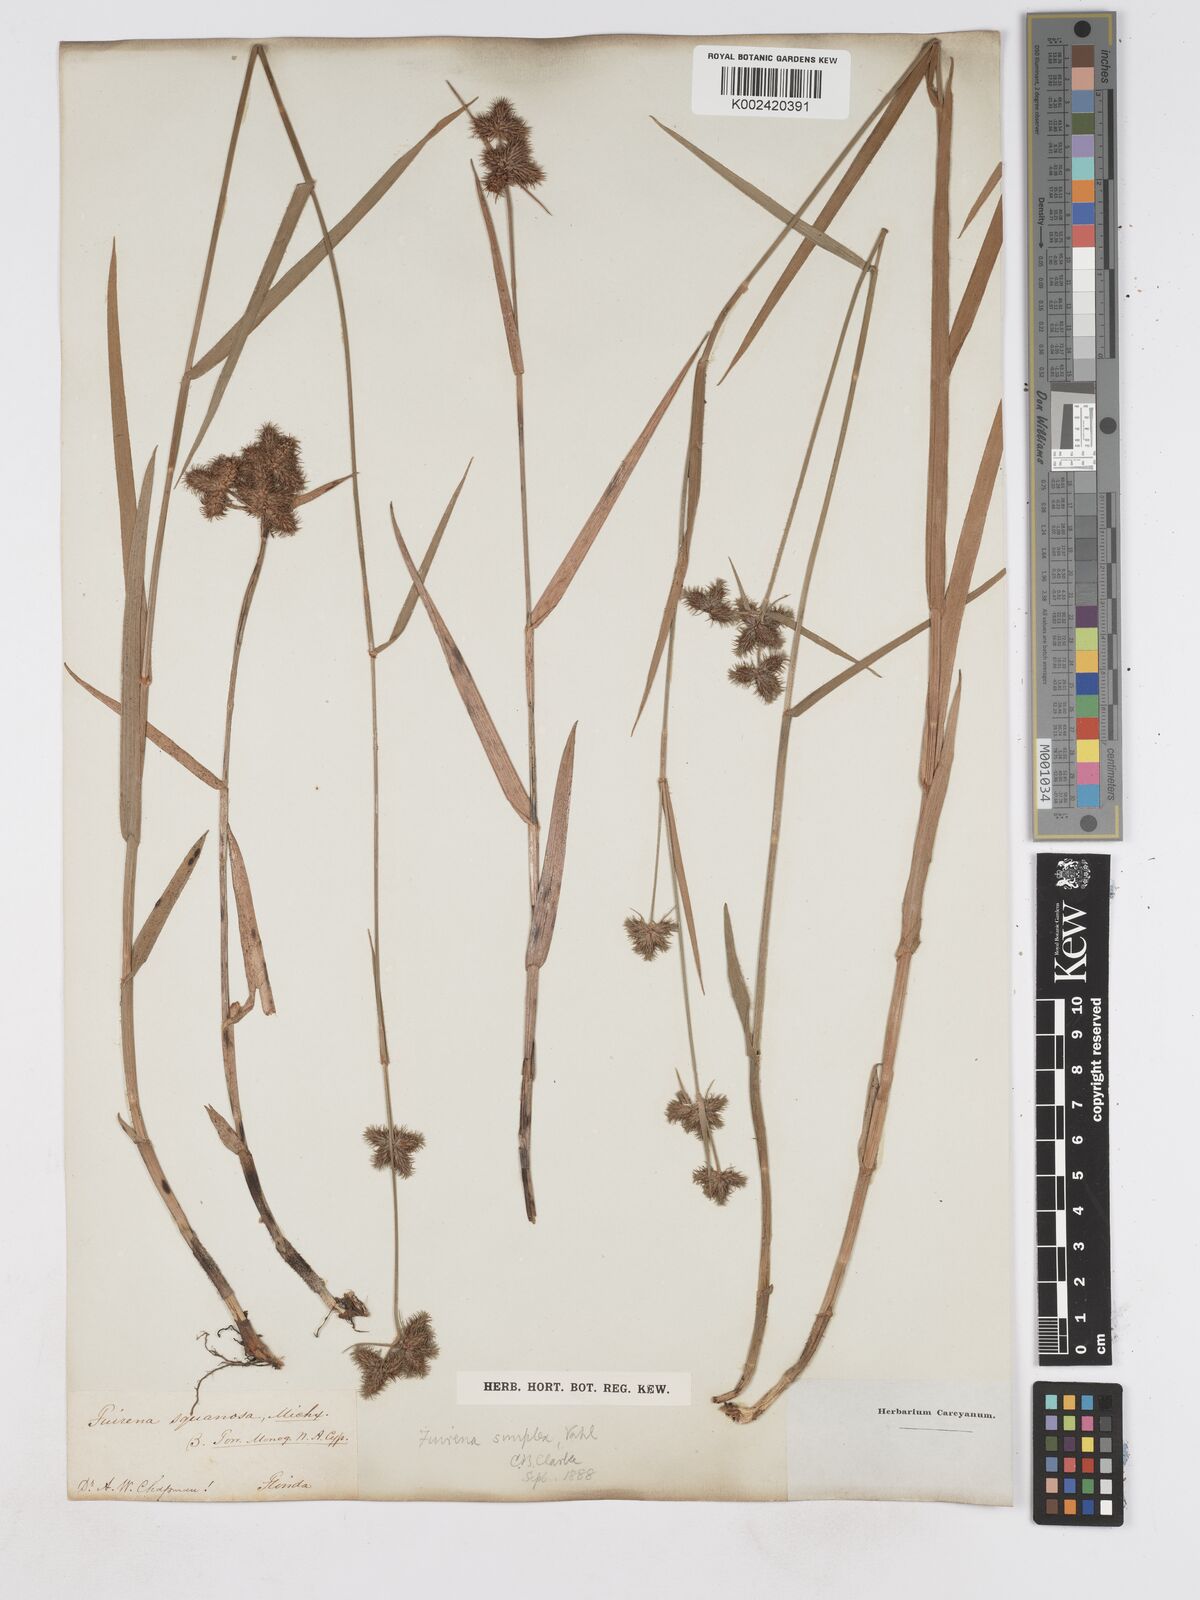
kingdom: Plantae
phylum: Tracheophyta
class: Liliopsida
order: Poales
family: Cyperaceae
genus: Fuirena
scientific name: Fuirena simplex
